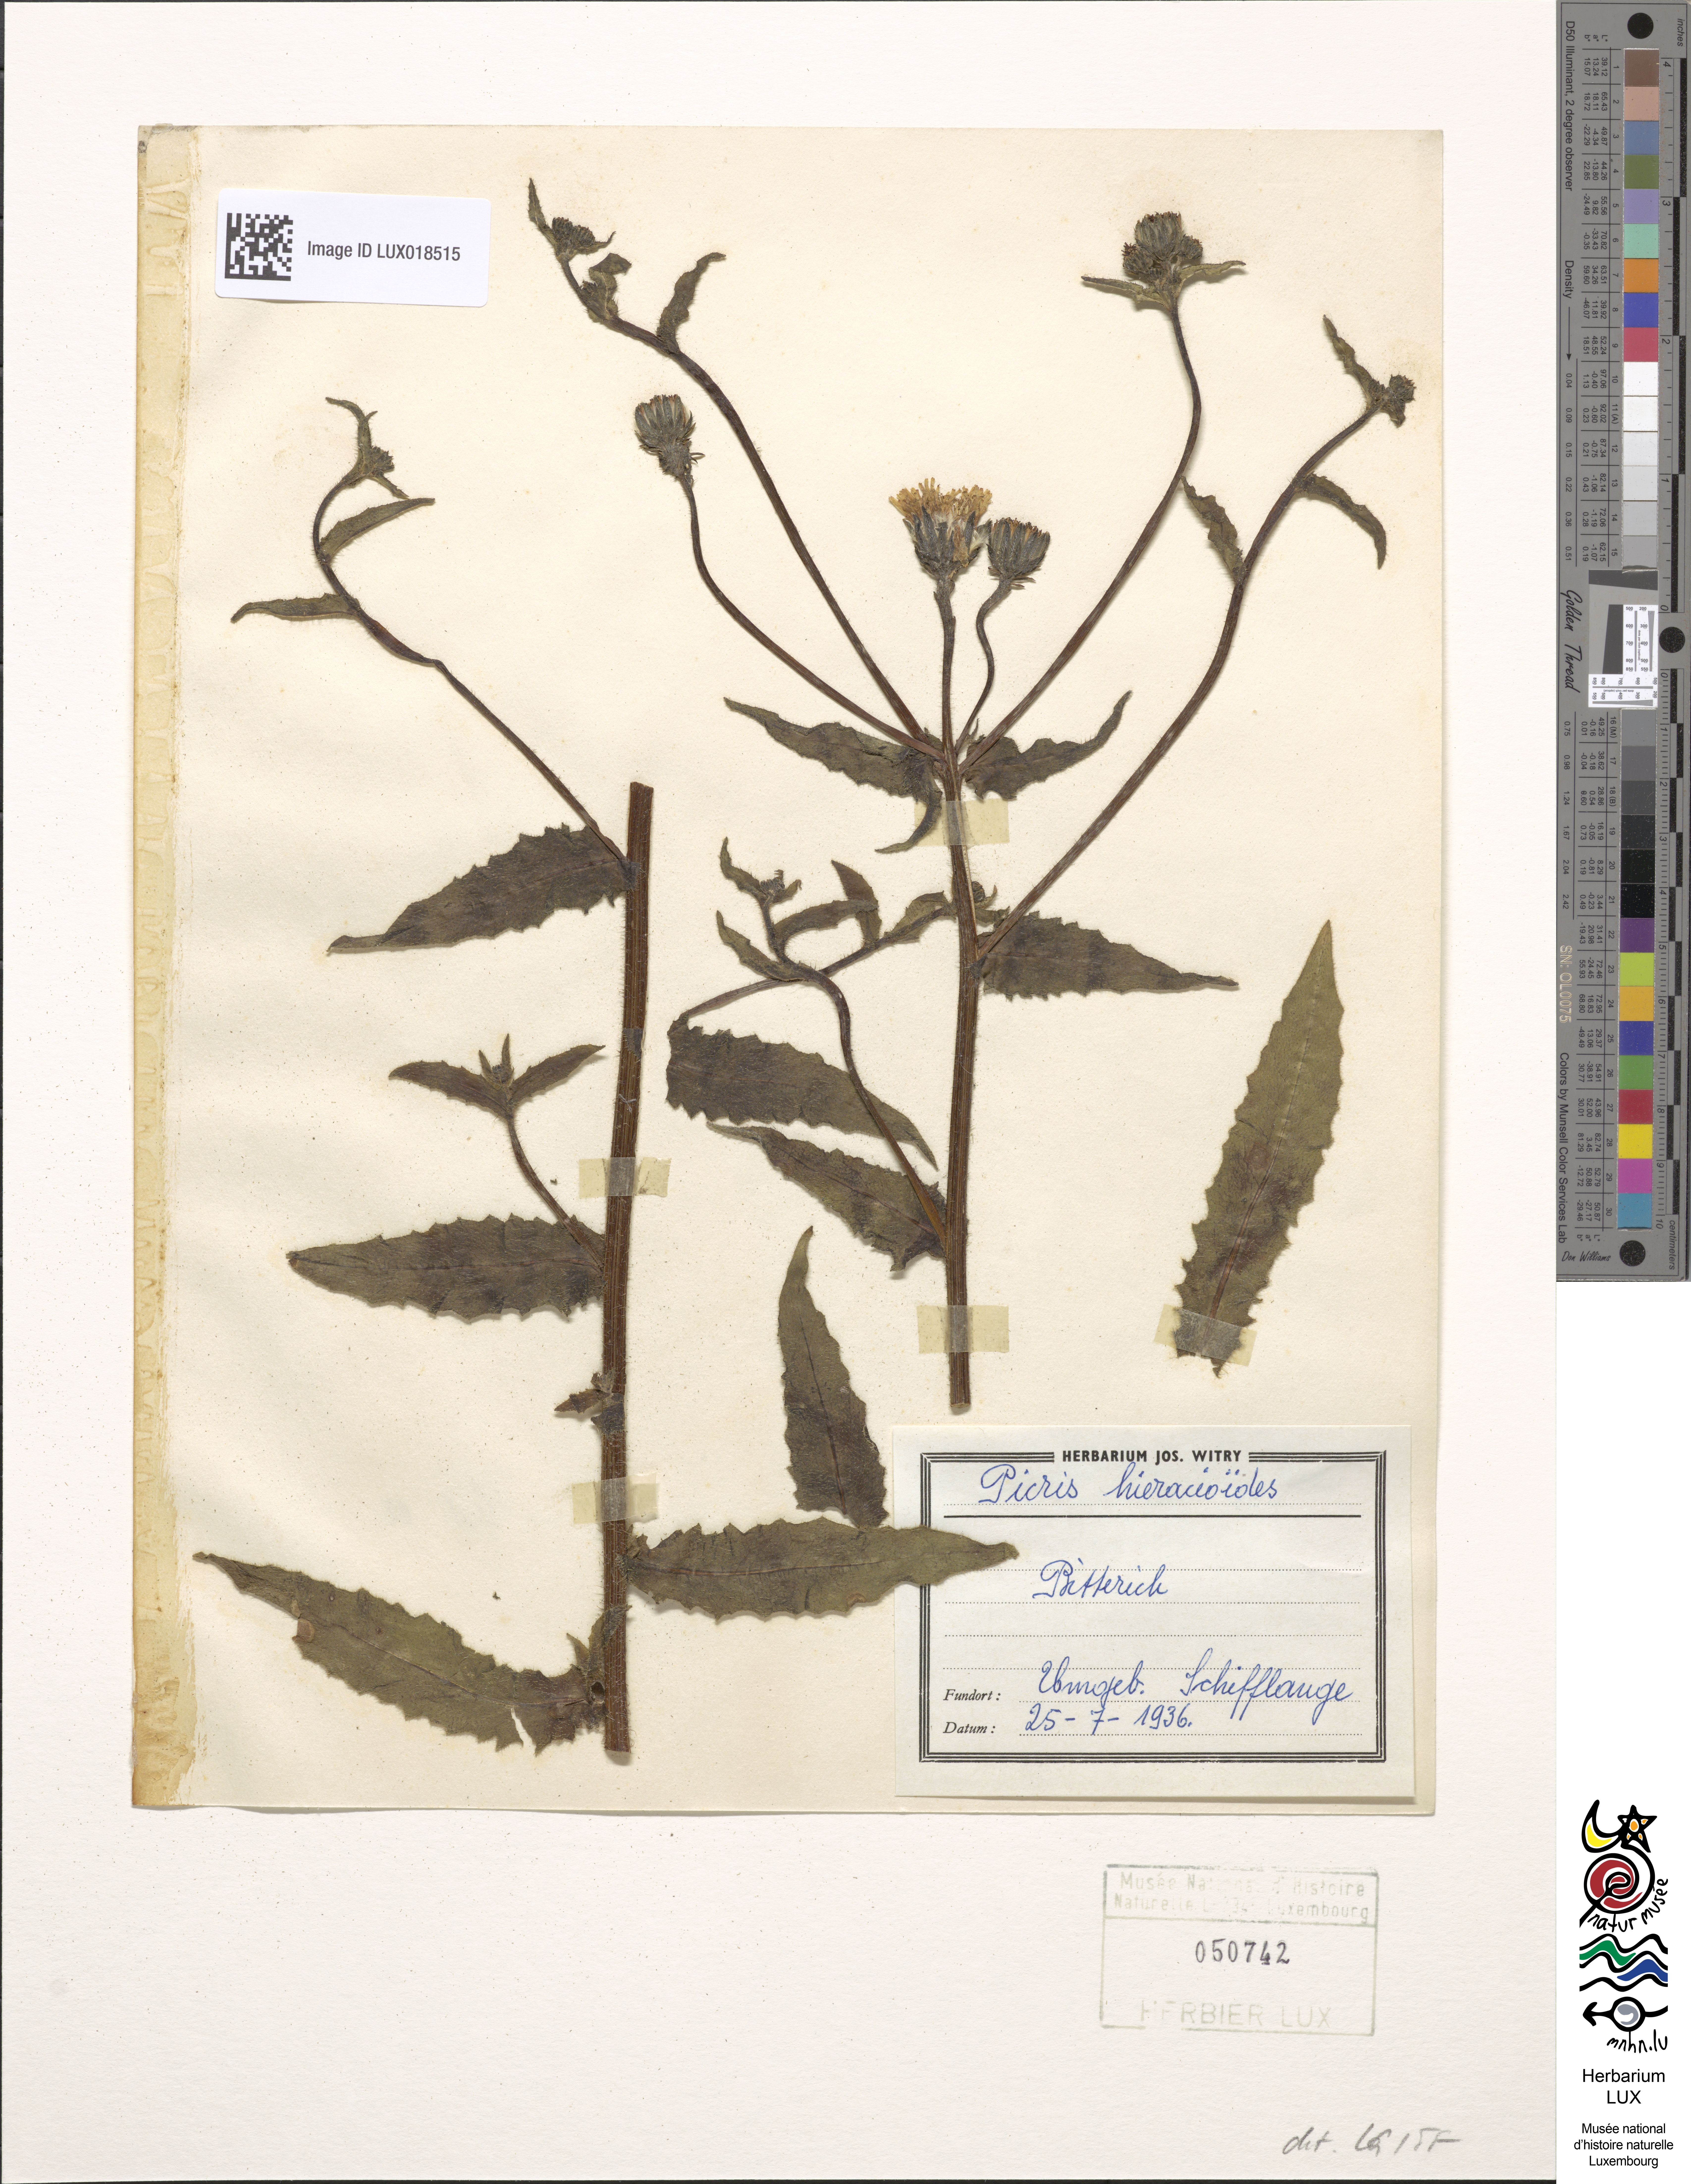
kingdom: Plantae
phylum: Tracheophyta
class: Magnoliopsida
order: Asterales
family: Asteraceae
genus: Picris
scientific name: Picris hieracioides
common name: Hawkweed oxtongue
